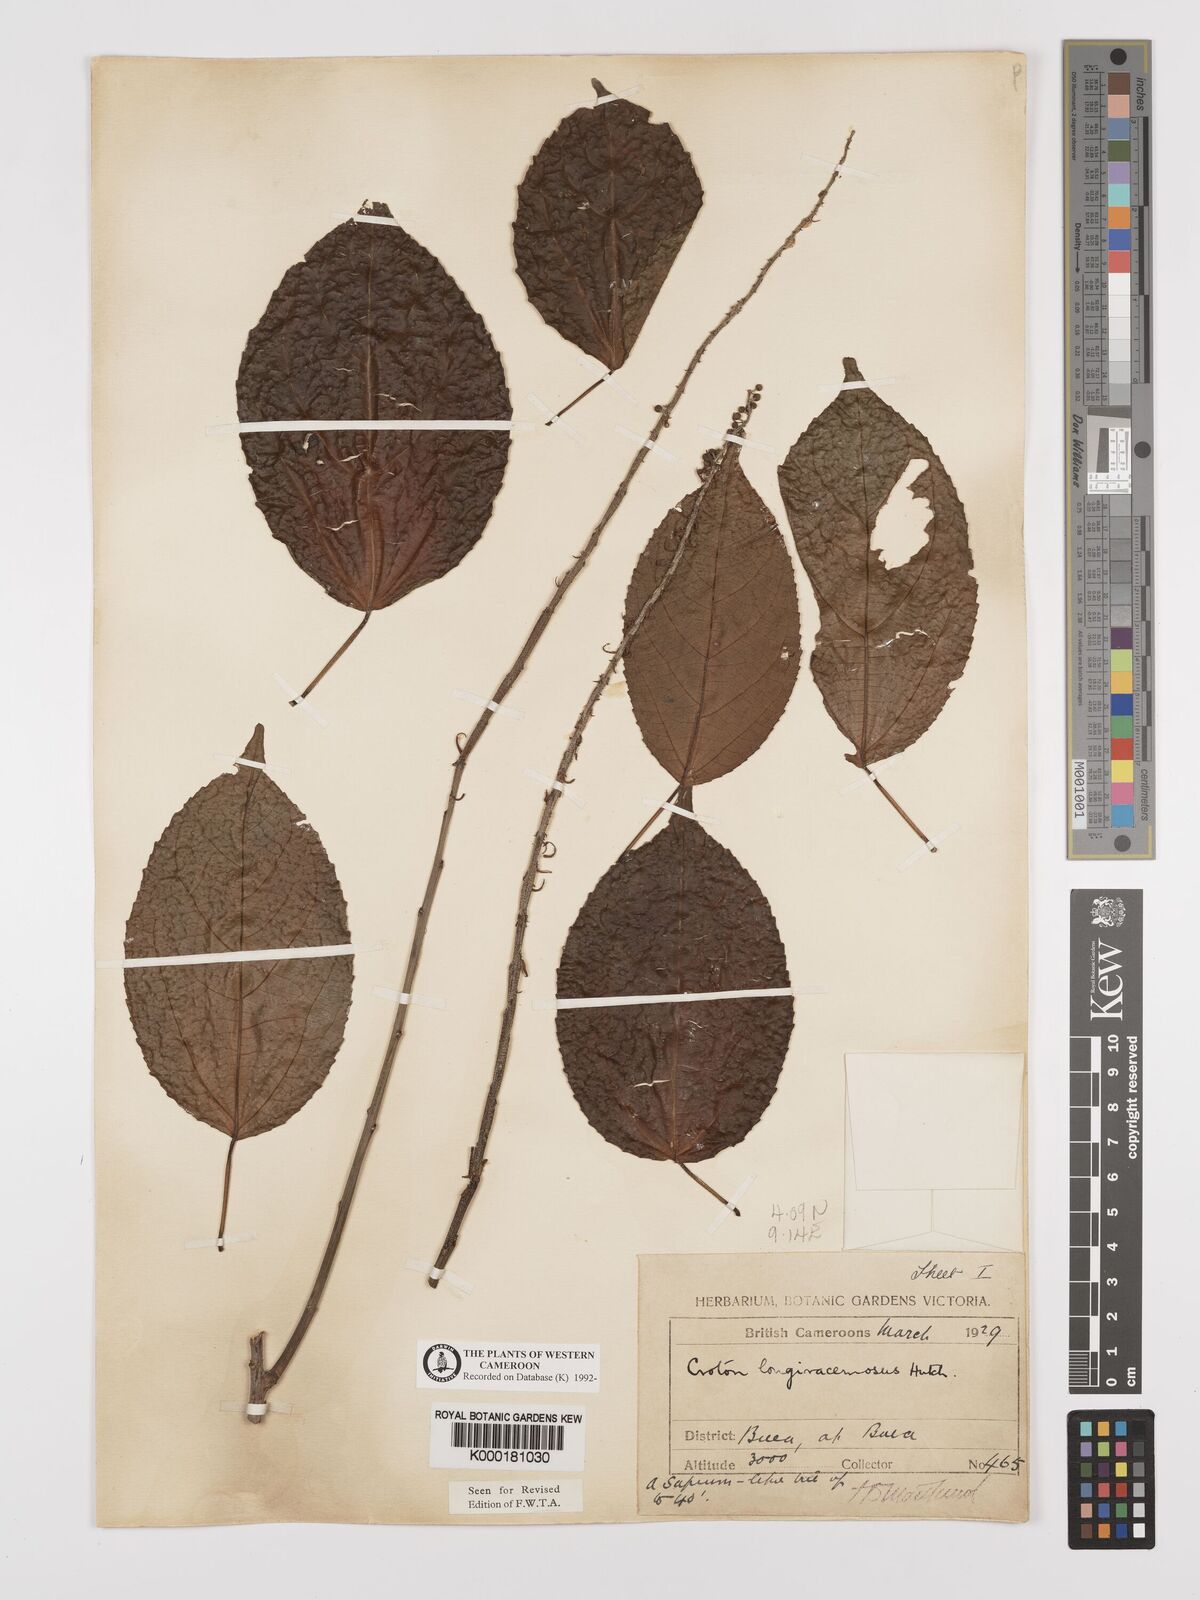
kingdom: Plantae
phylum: Tracheophyta
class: Magnoliopsida
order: Malpighiales
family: Euphorbiaceae
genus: Croton
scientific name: Croton longiracemosus
